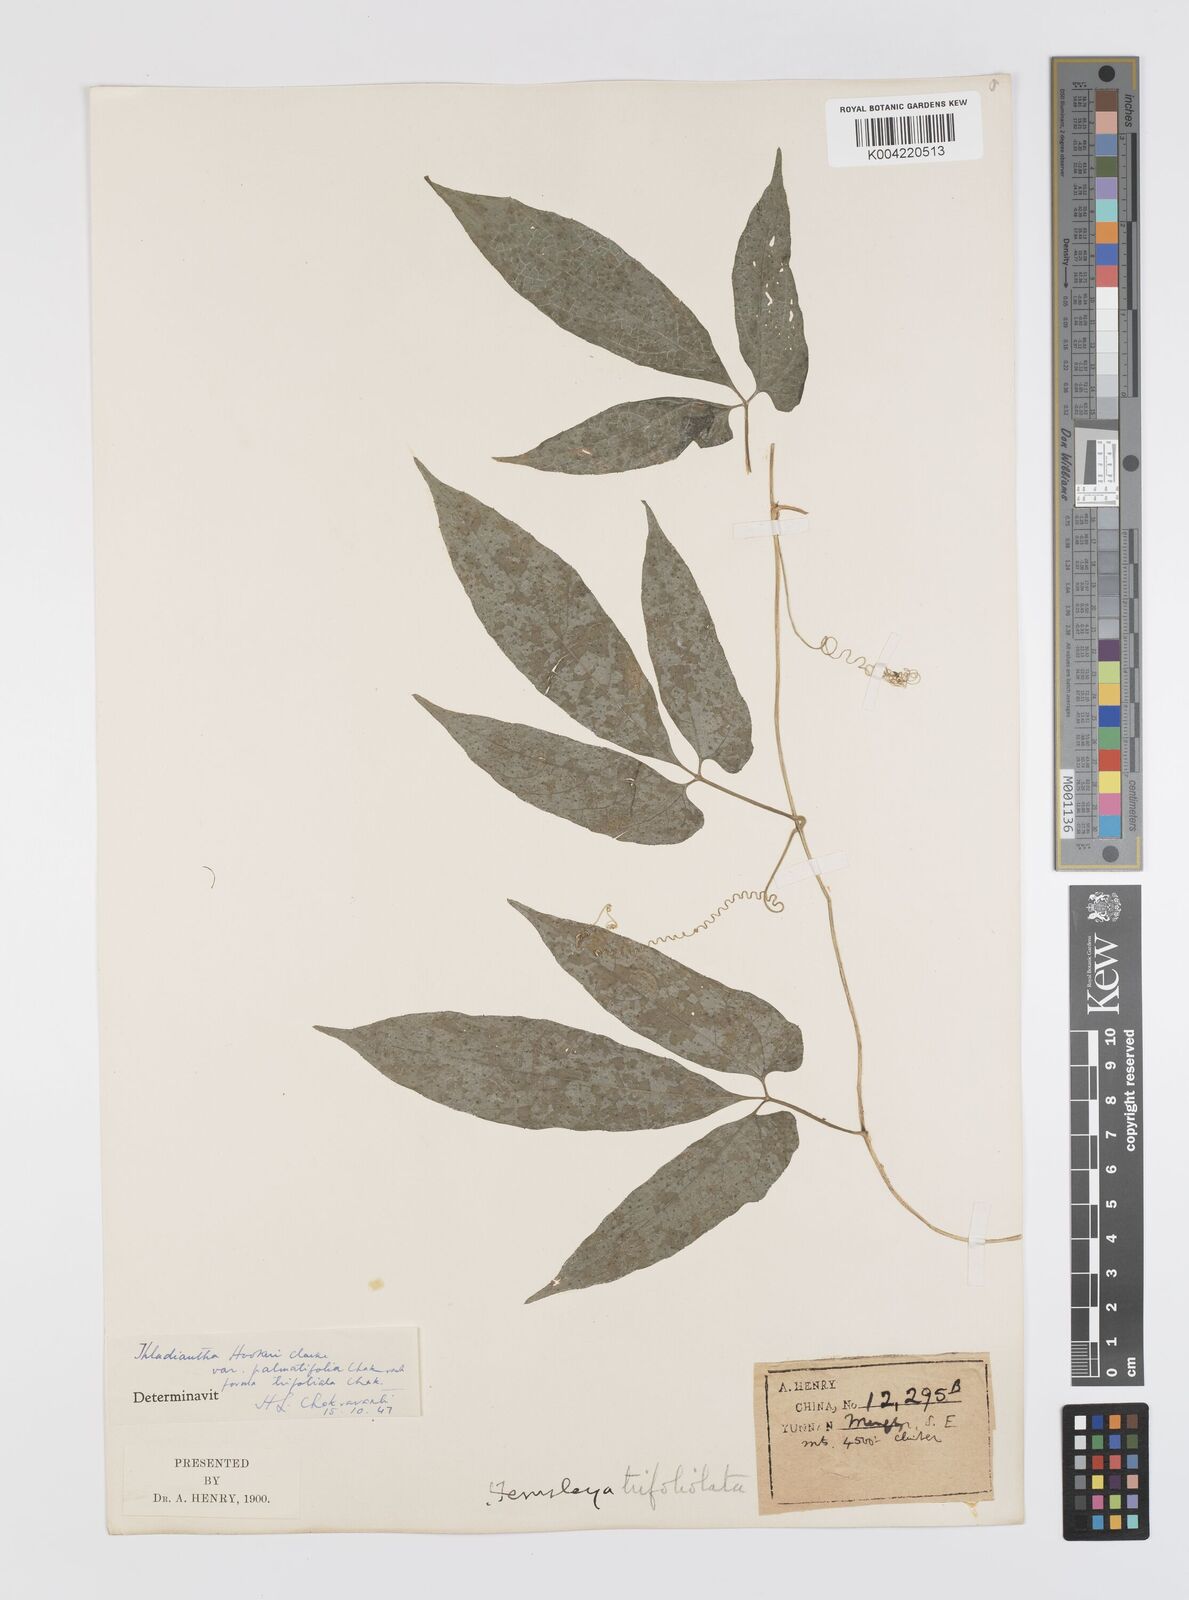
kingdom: Plantae
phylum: Tracheophyta
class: Magnoliopsida
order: Cucurbitales
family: Cucurbitaceae
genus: Thladiantha
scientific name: Thladiantha hookeri
